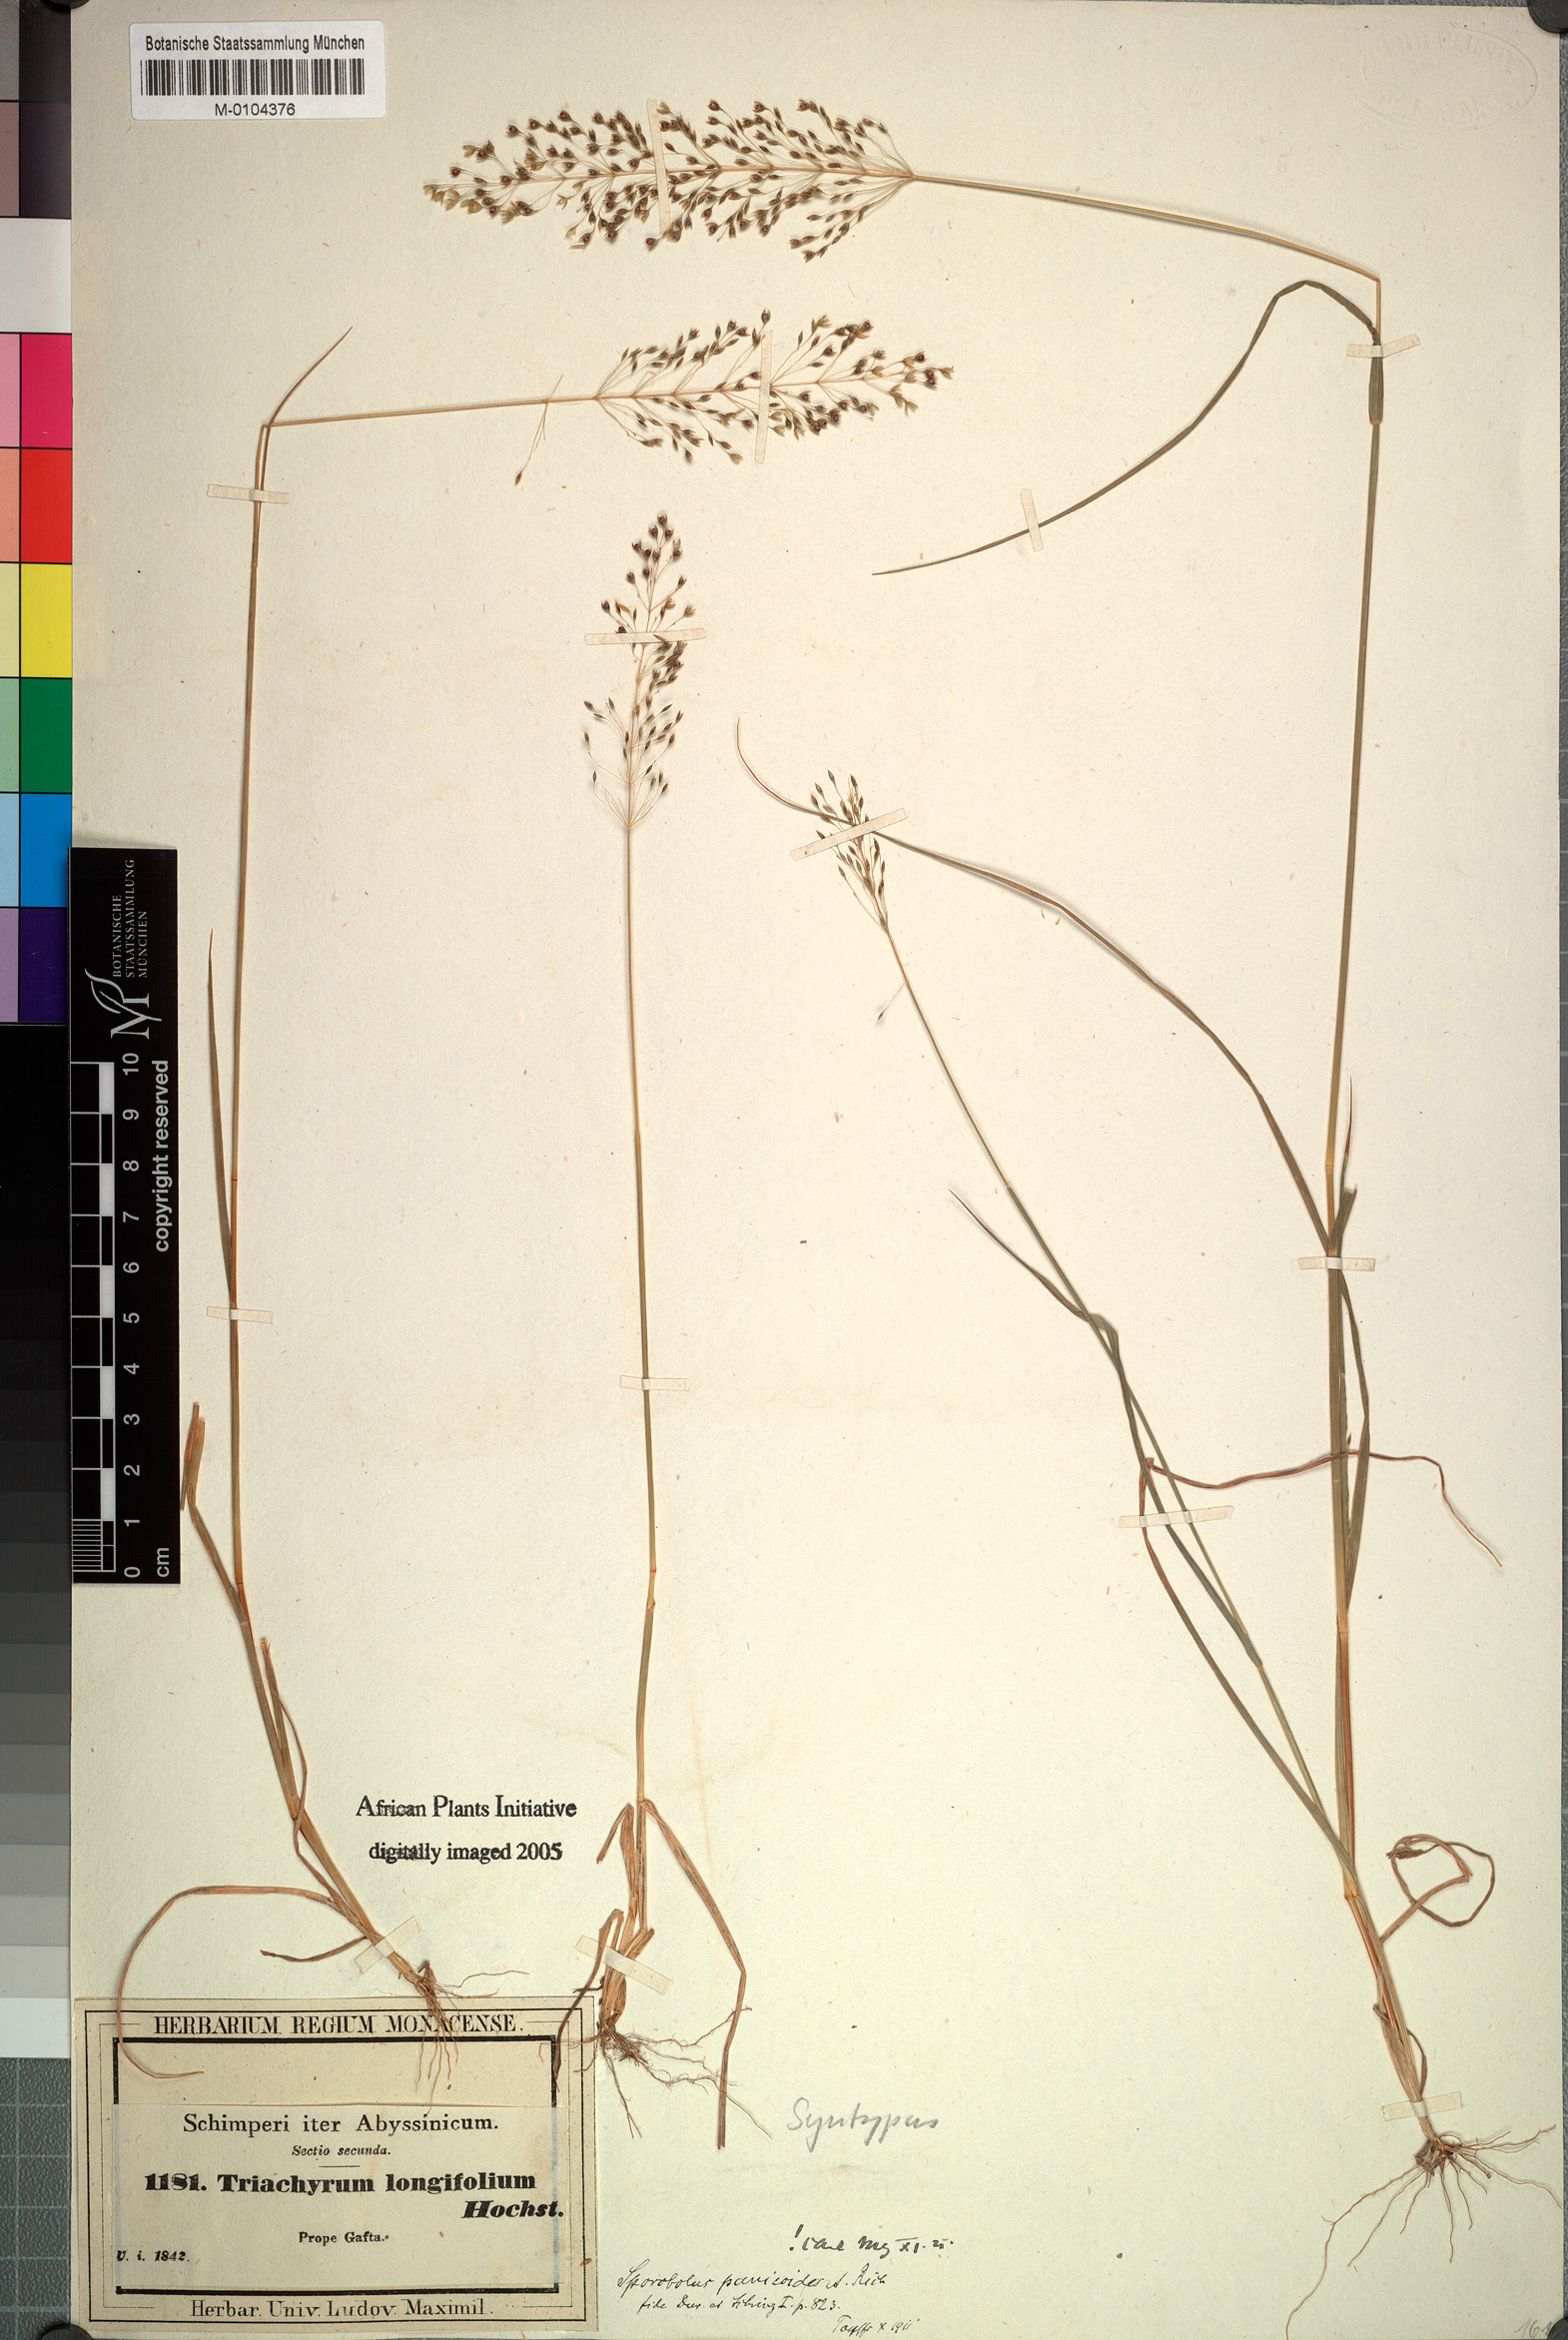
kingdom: Plantae
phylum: Tracheophyta
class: Liliopsida
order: Poales
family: Poaceae
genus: Sporobolus
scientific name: Sporobolus panicoides
